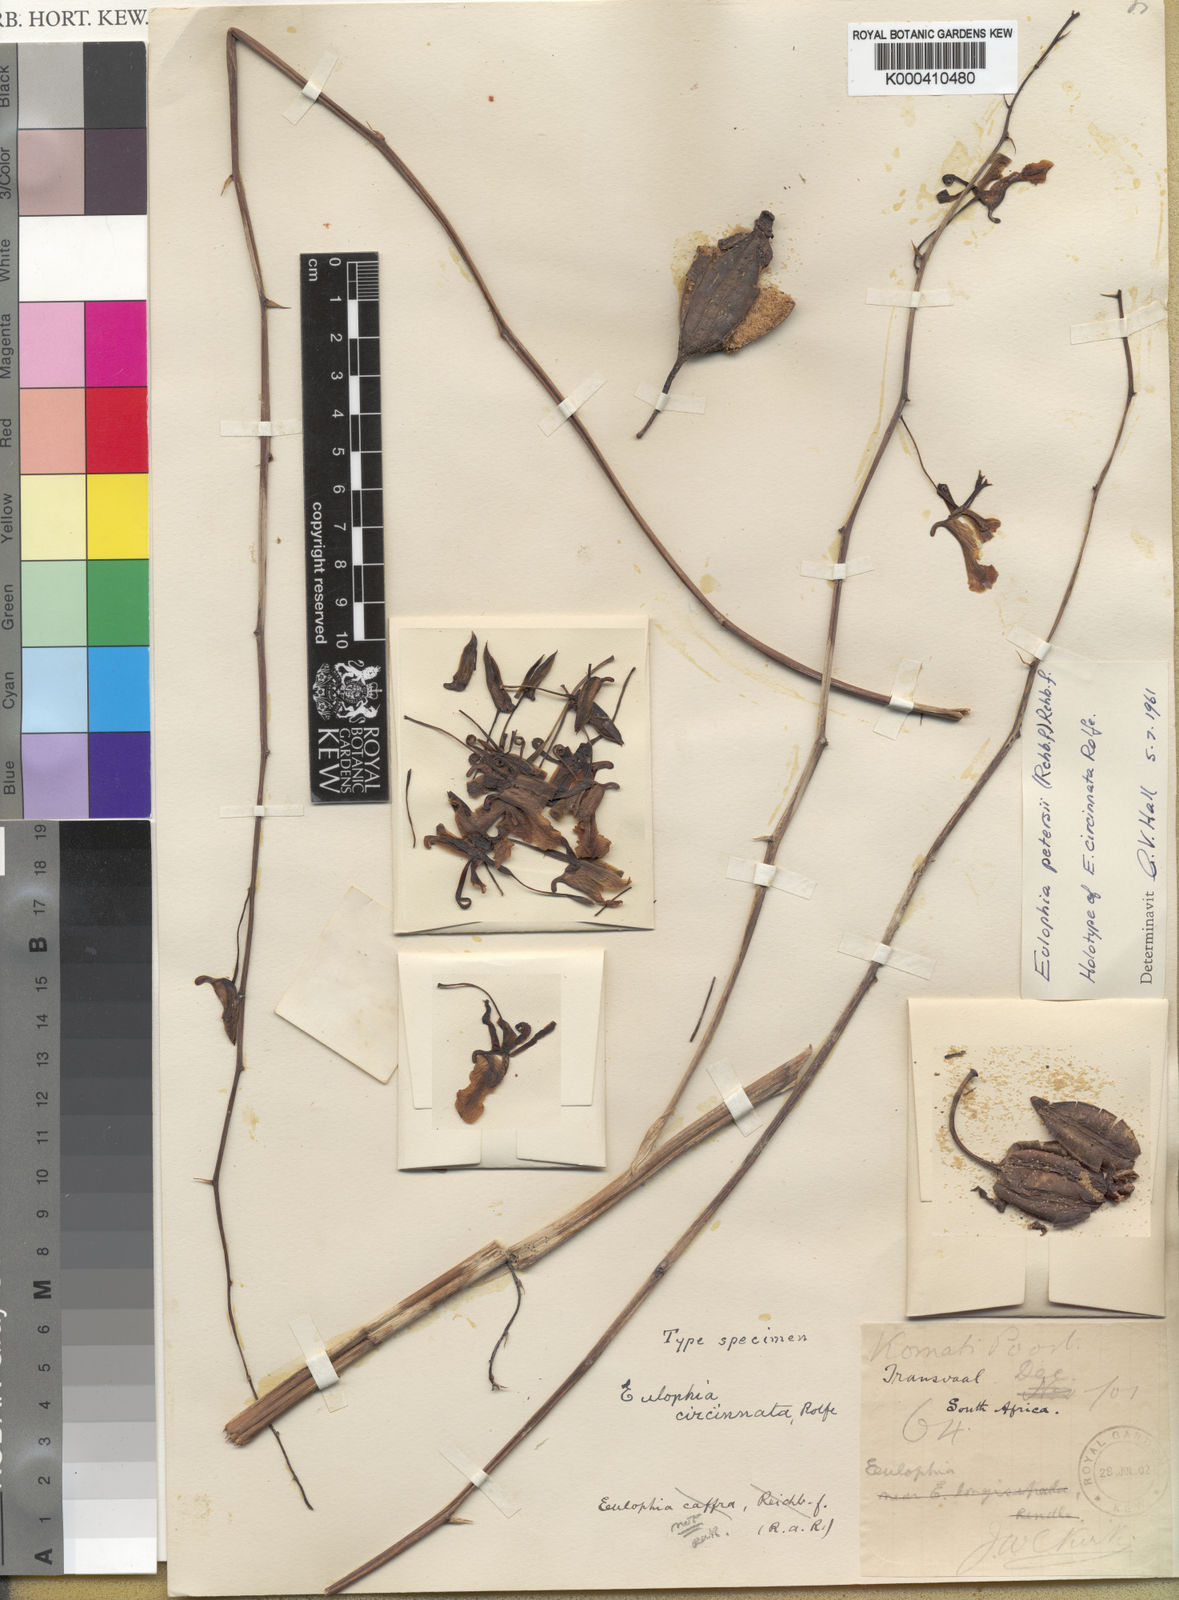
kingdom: Plantae
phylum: Tracheophyta
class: Liliopsida
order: Asparagales
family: Orchidaceae
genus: Eulophia
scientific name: Eulophia petersii
